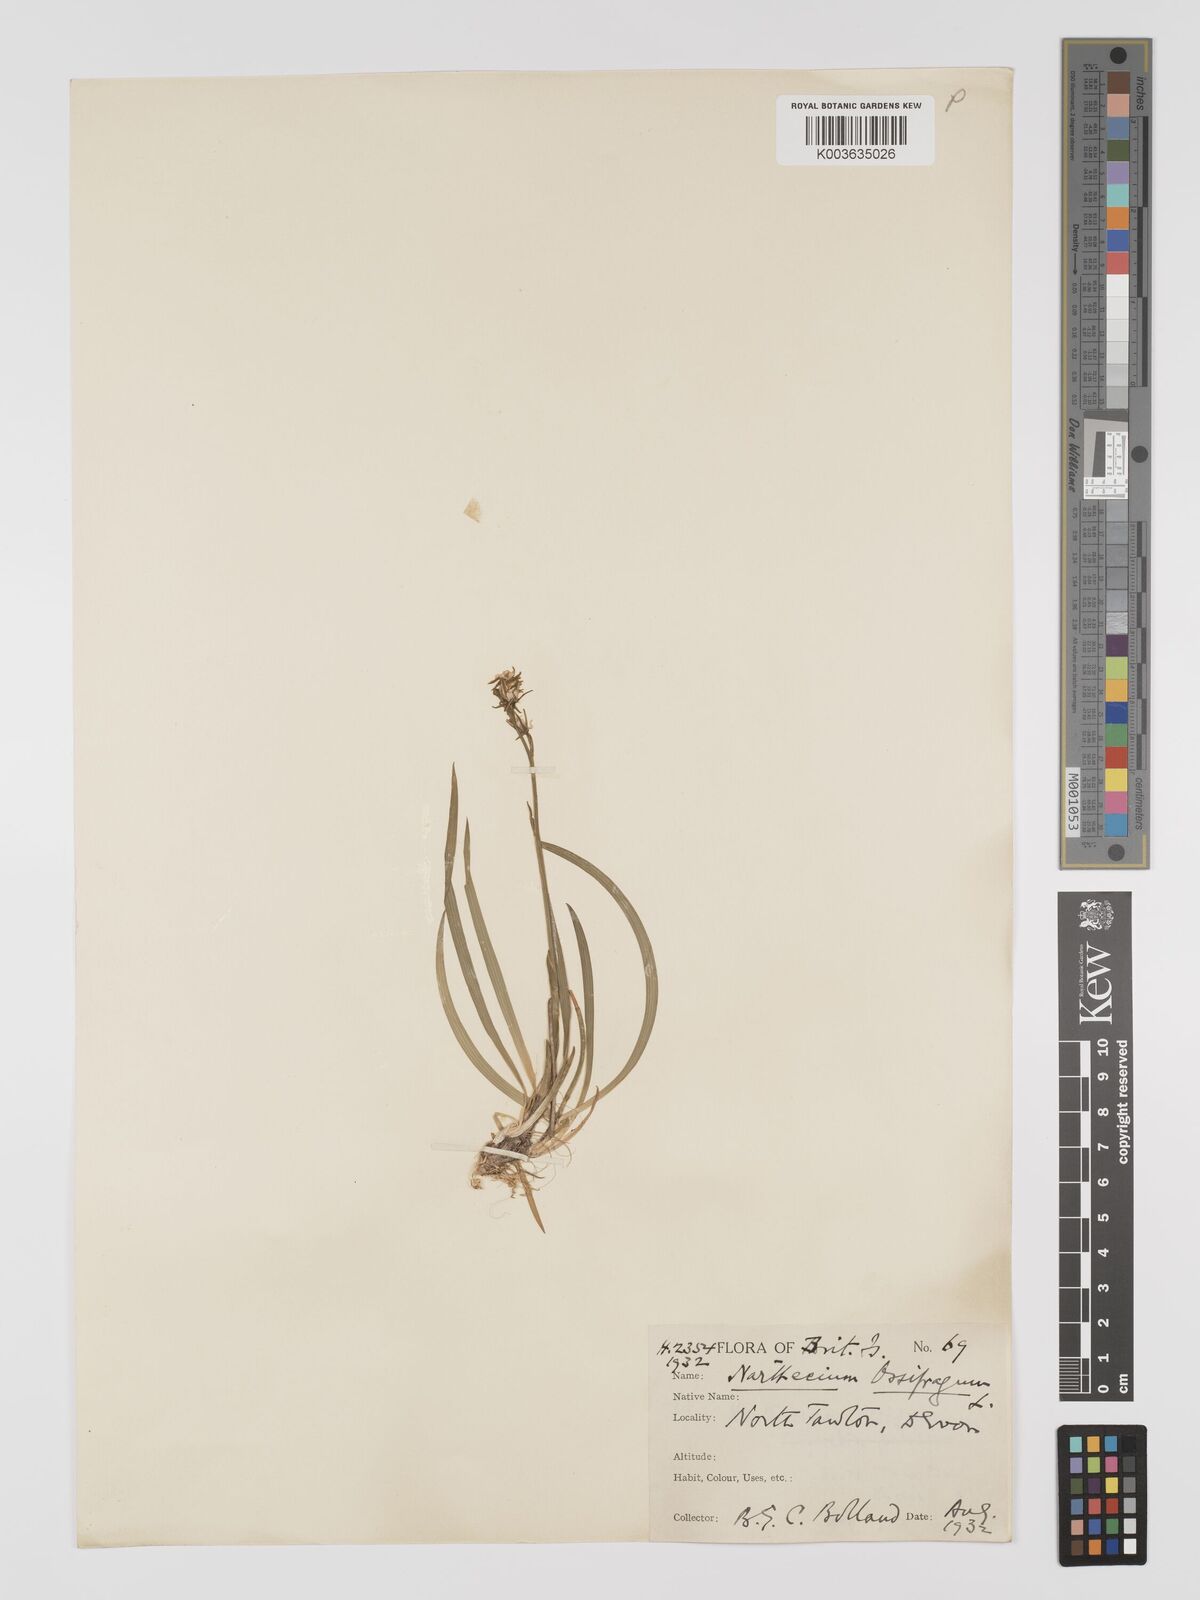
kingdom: Plantae
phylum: Tracheophyta
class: Liliopsida
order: Dioscoreales
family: Nartheciaceae
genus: Narthecium
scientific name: Narthecium ossifragum
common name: Bog asphodel
